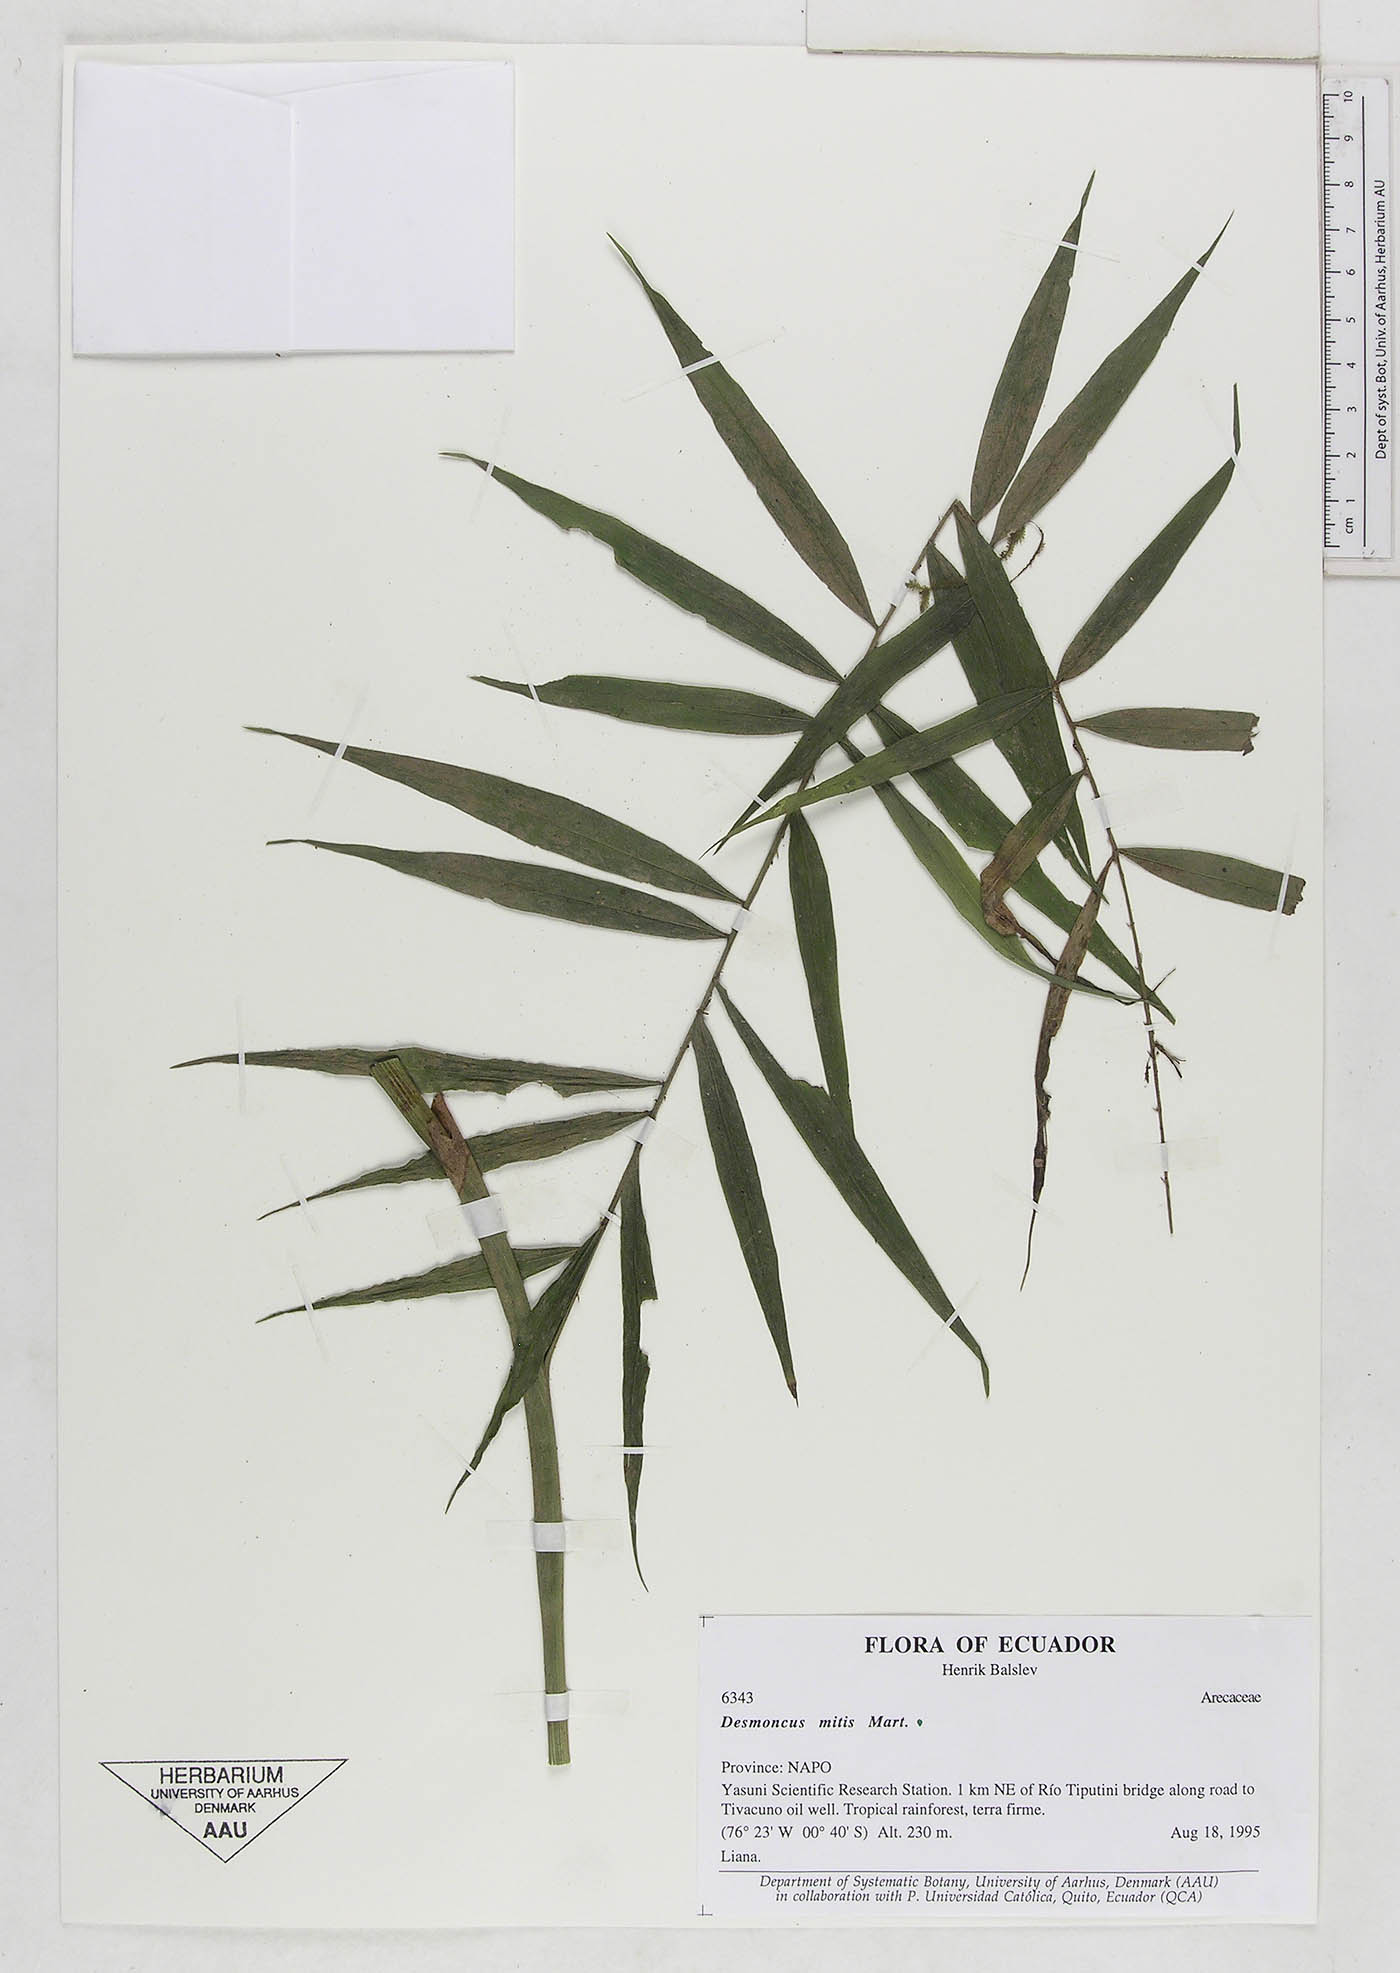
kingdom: Plantae
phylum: Tracheophyta
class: Liliopsida
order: Arecales
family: Arecaceae
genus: Desmoncus
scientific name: Desmoncus mitis
